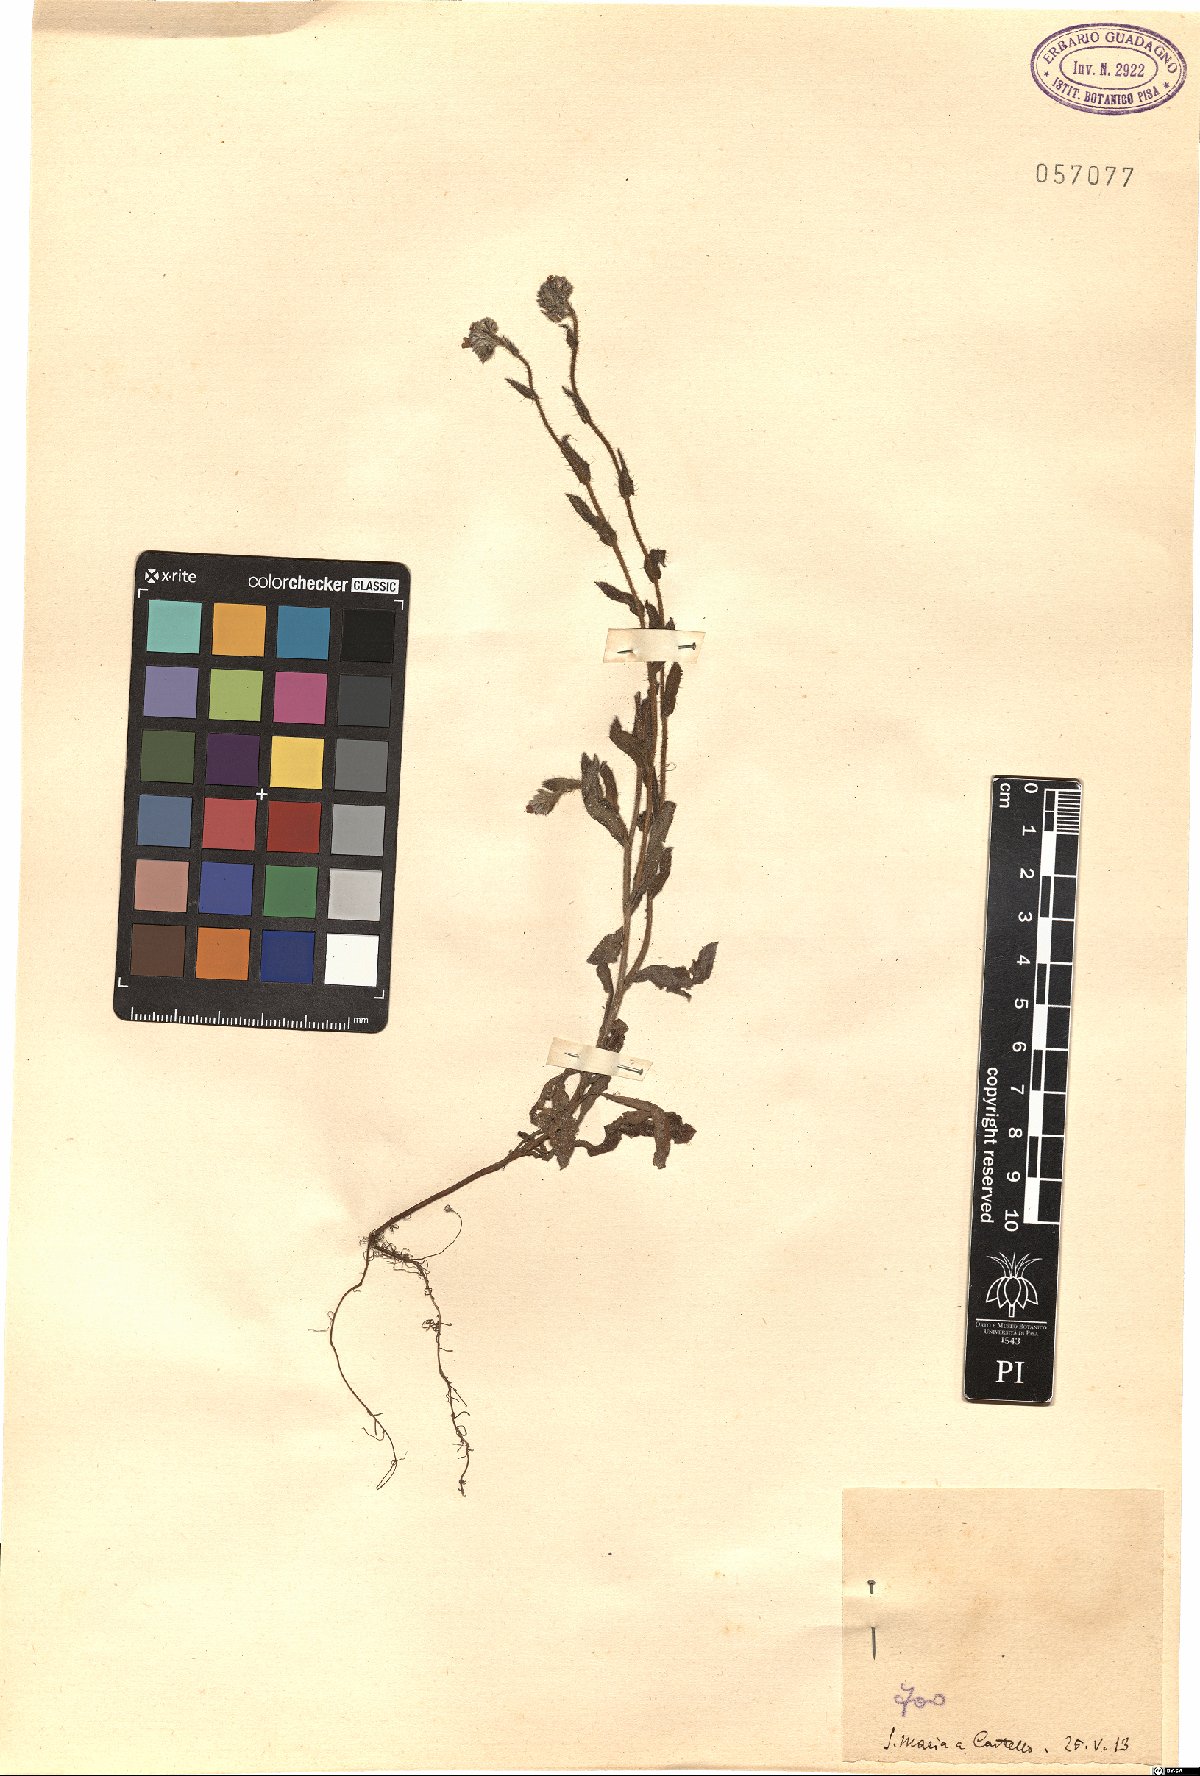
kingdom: Plantae
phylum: Tracheophyta
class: Magnoliopsida
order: Boraginales
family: Boraginaceae
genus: Lycopsis
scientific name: Lycopsis
